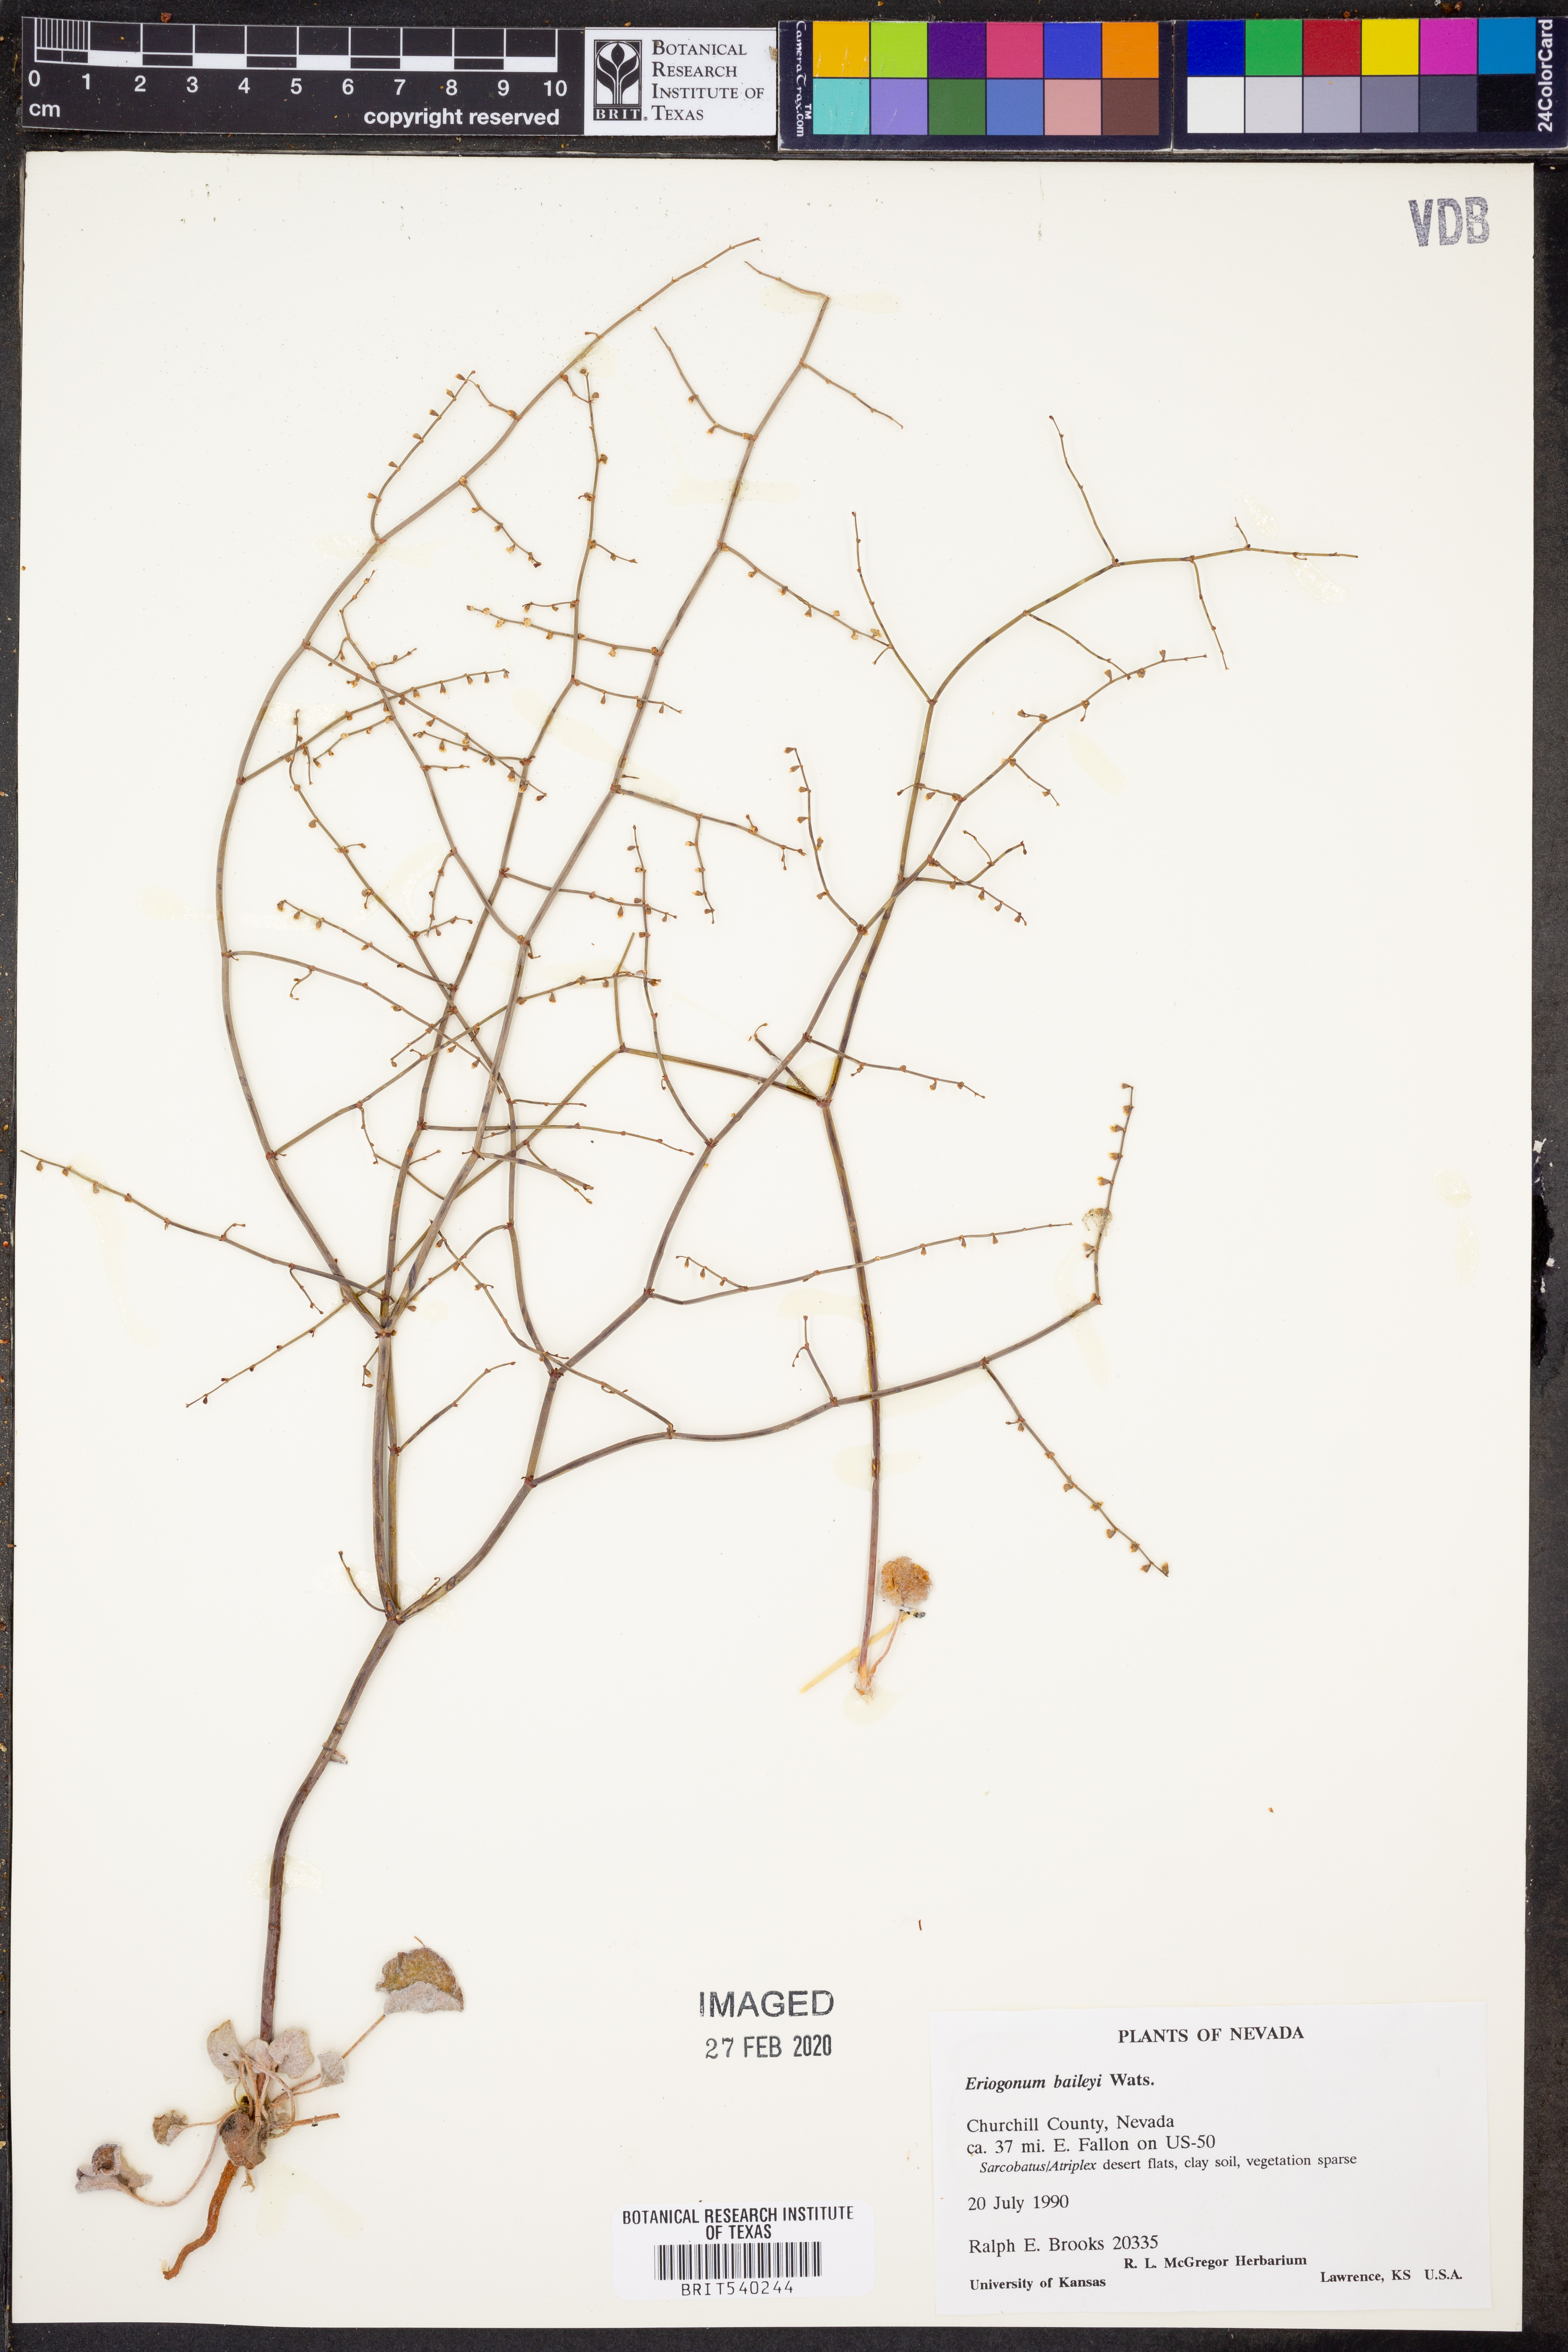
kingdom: Plantae
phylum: Tracheophyta
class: Magnoliopsida
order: Caryophyllales
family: Polygonaceae
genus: Eriogonum
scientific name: Eriogonum baileyi
